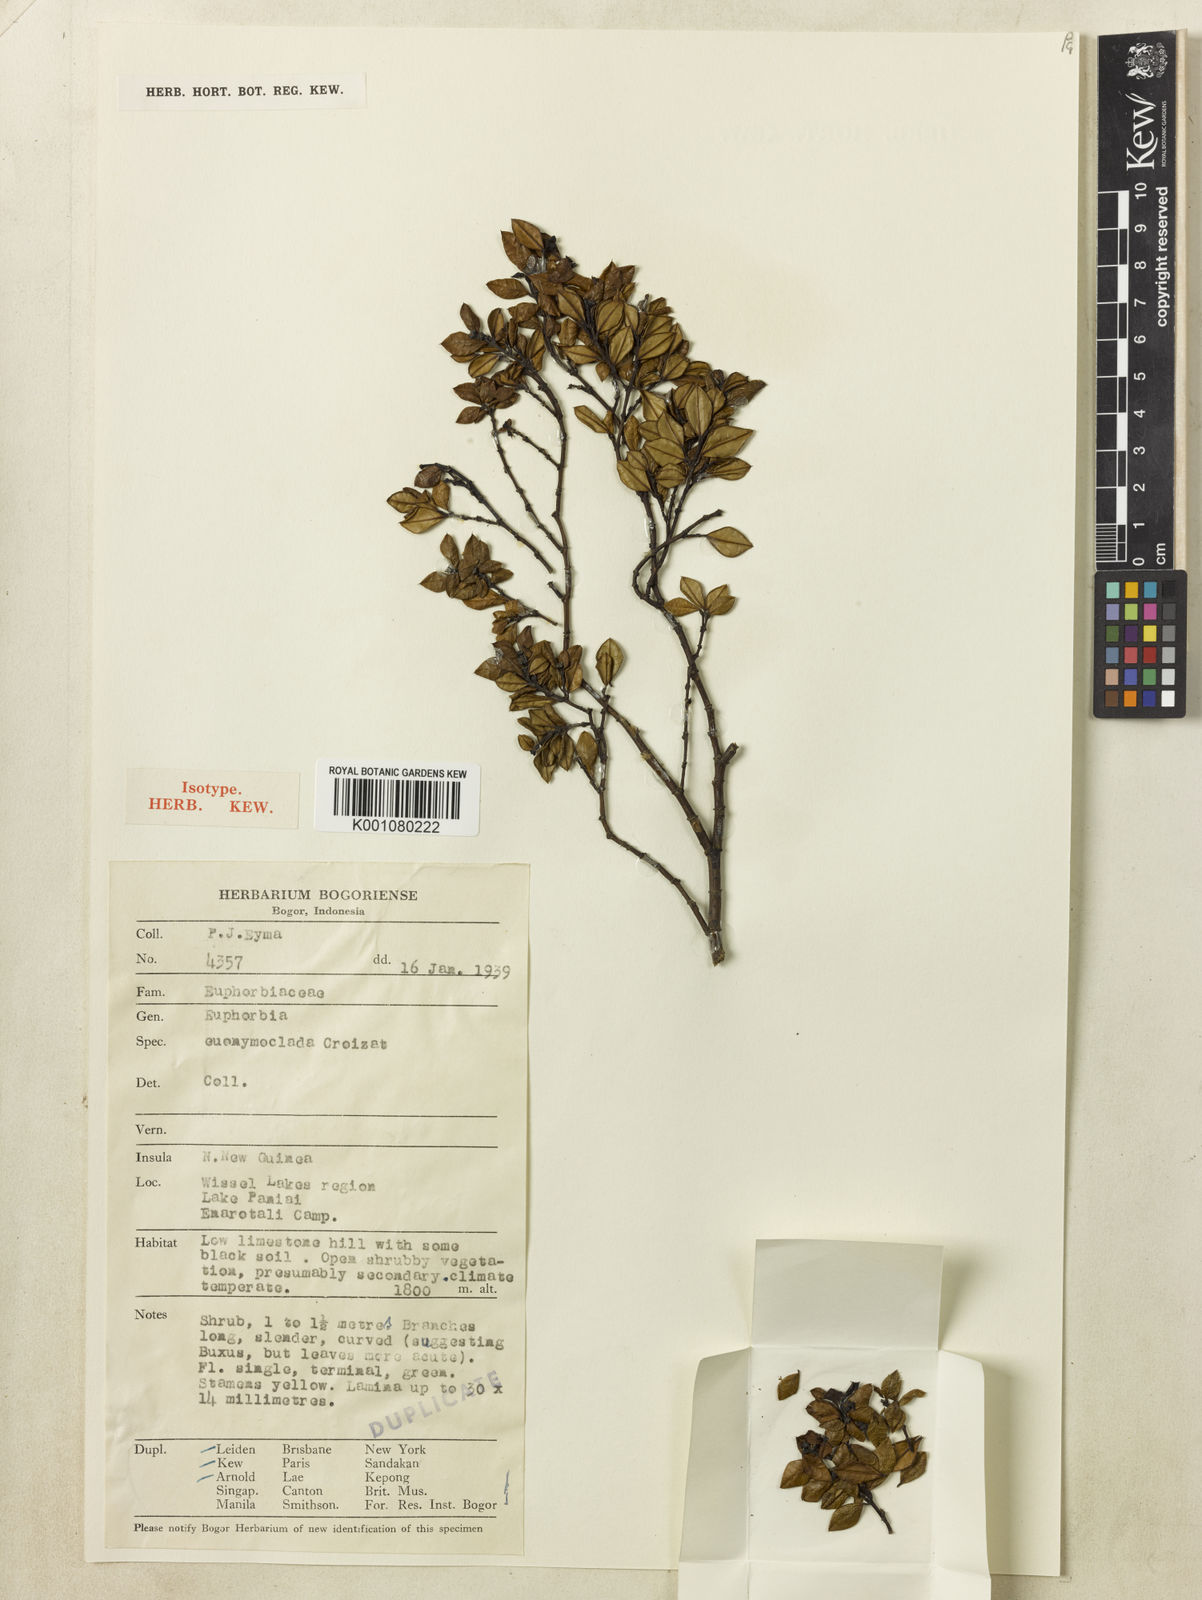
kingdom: Plantae
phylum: Tracheophyta
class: Magnoliopsida
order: Malpighiales
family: Euphorbiaceae
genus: Euphorbia
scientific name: Euphorbia euonymoclada
